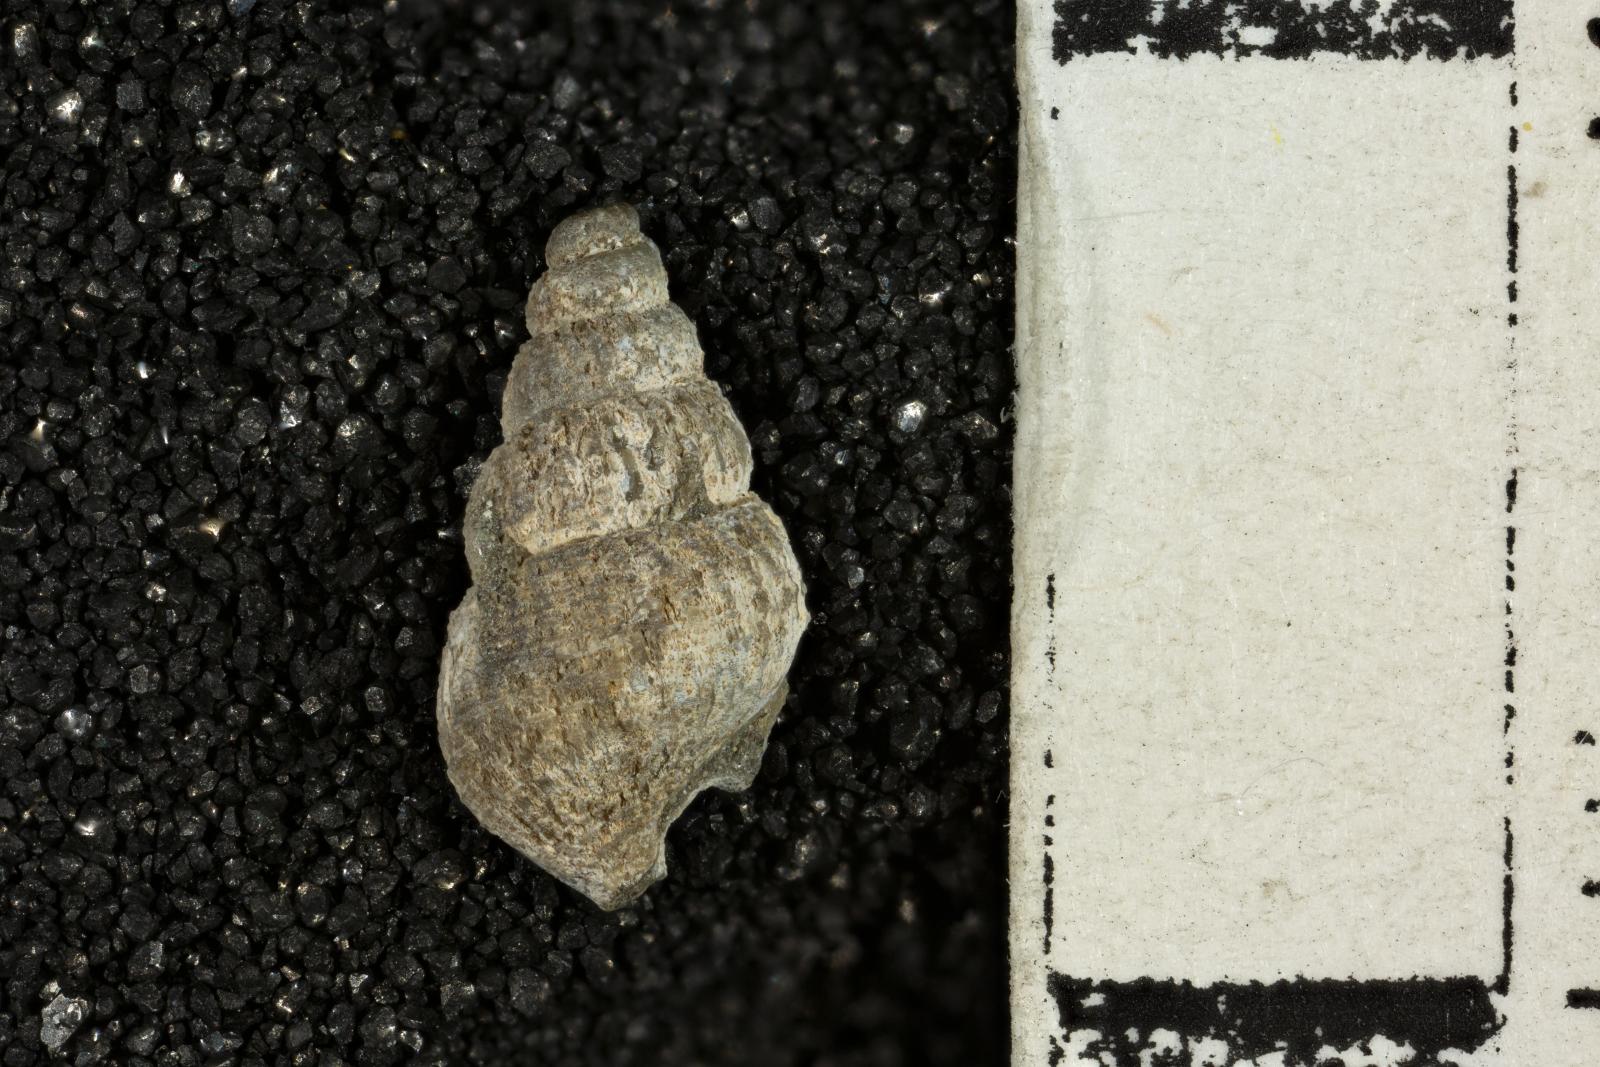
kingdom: Animalia
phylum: Mollusca
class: Gastropoda
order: Neogastropoda
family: Maturifusidae
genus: Astandes
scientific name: Astandes salsa
